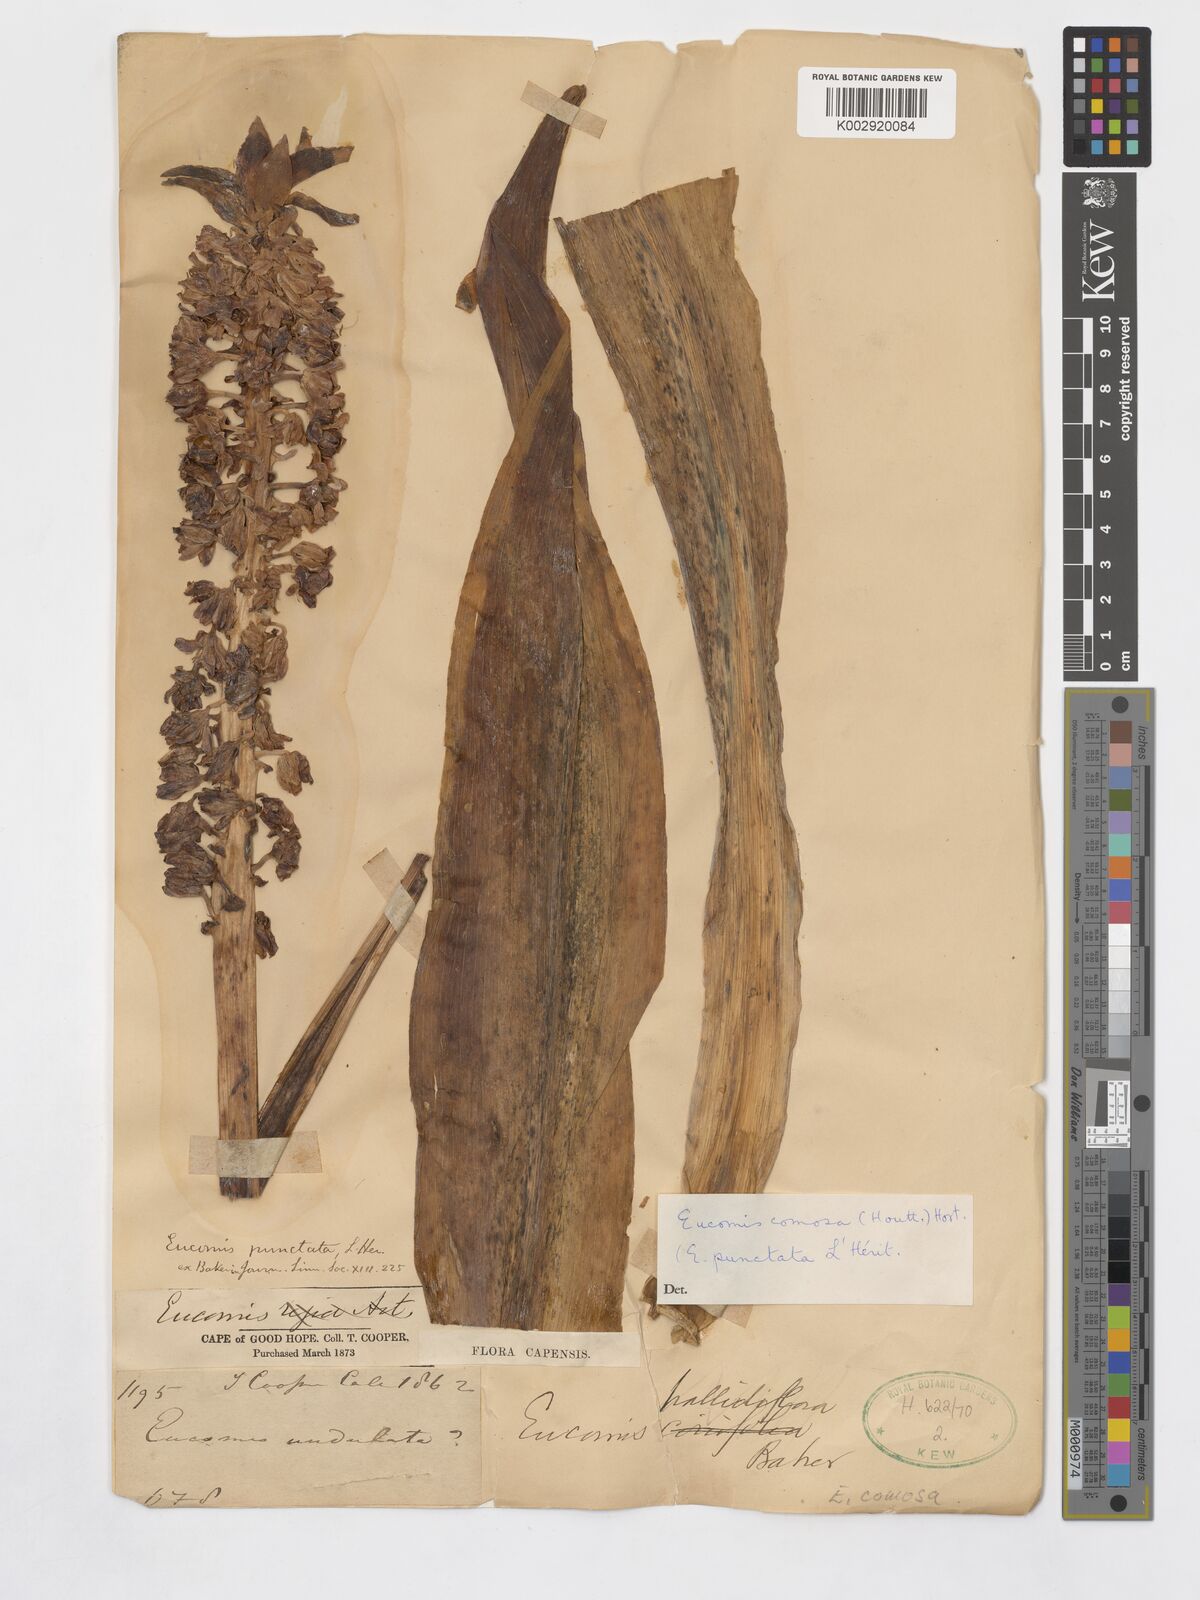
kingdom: Plantae
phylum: Tracheophyta
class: Liliopsida
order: Asparagales
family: Asparagaceae
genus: Eucomis
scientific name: Eucomis comosa
